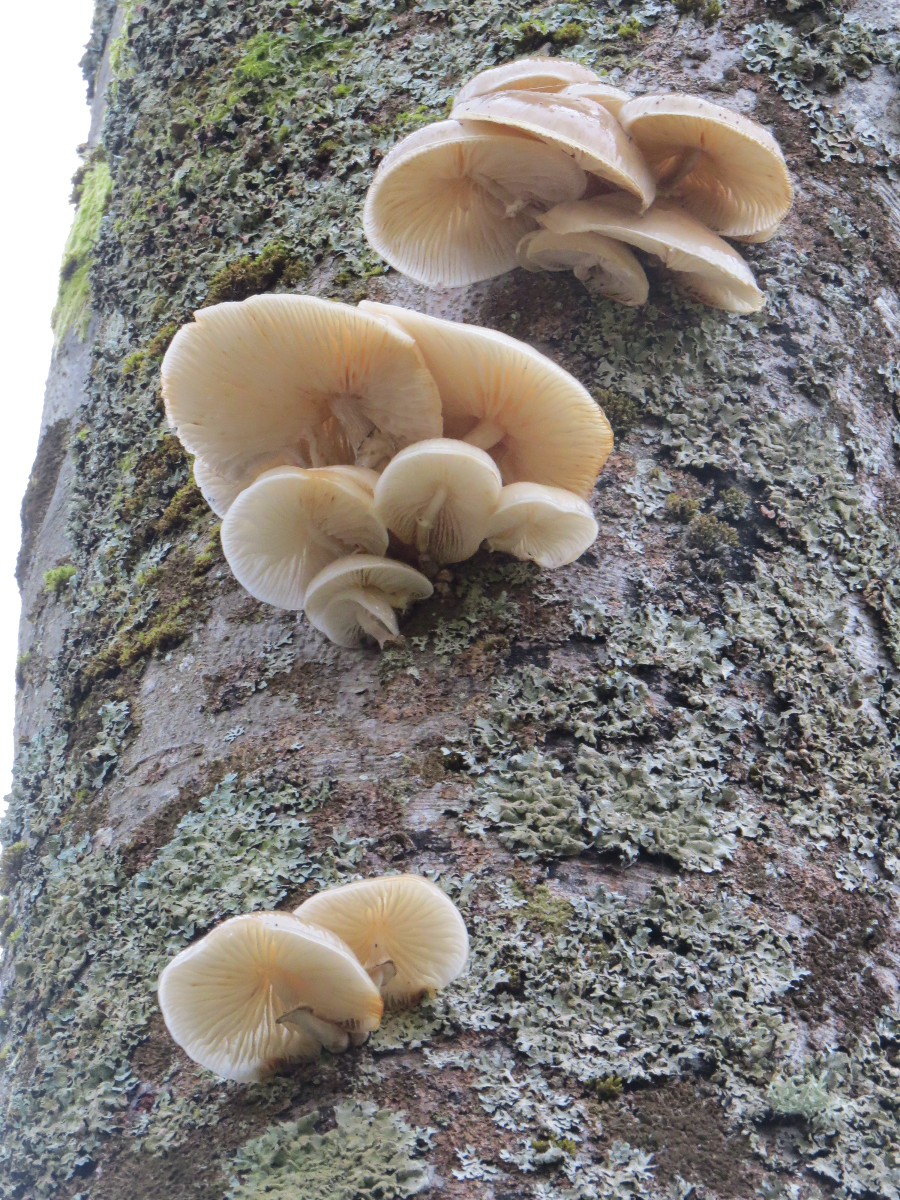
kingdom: Fungi
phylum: Basidiomycota
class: Agaricomycetes
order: Agaricales
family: Physalacriaceae
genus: Mucidula
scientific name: Mucidula mucida
